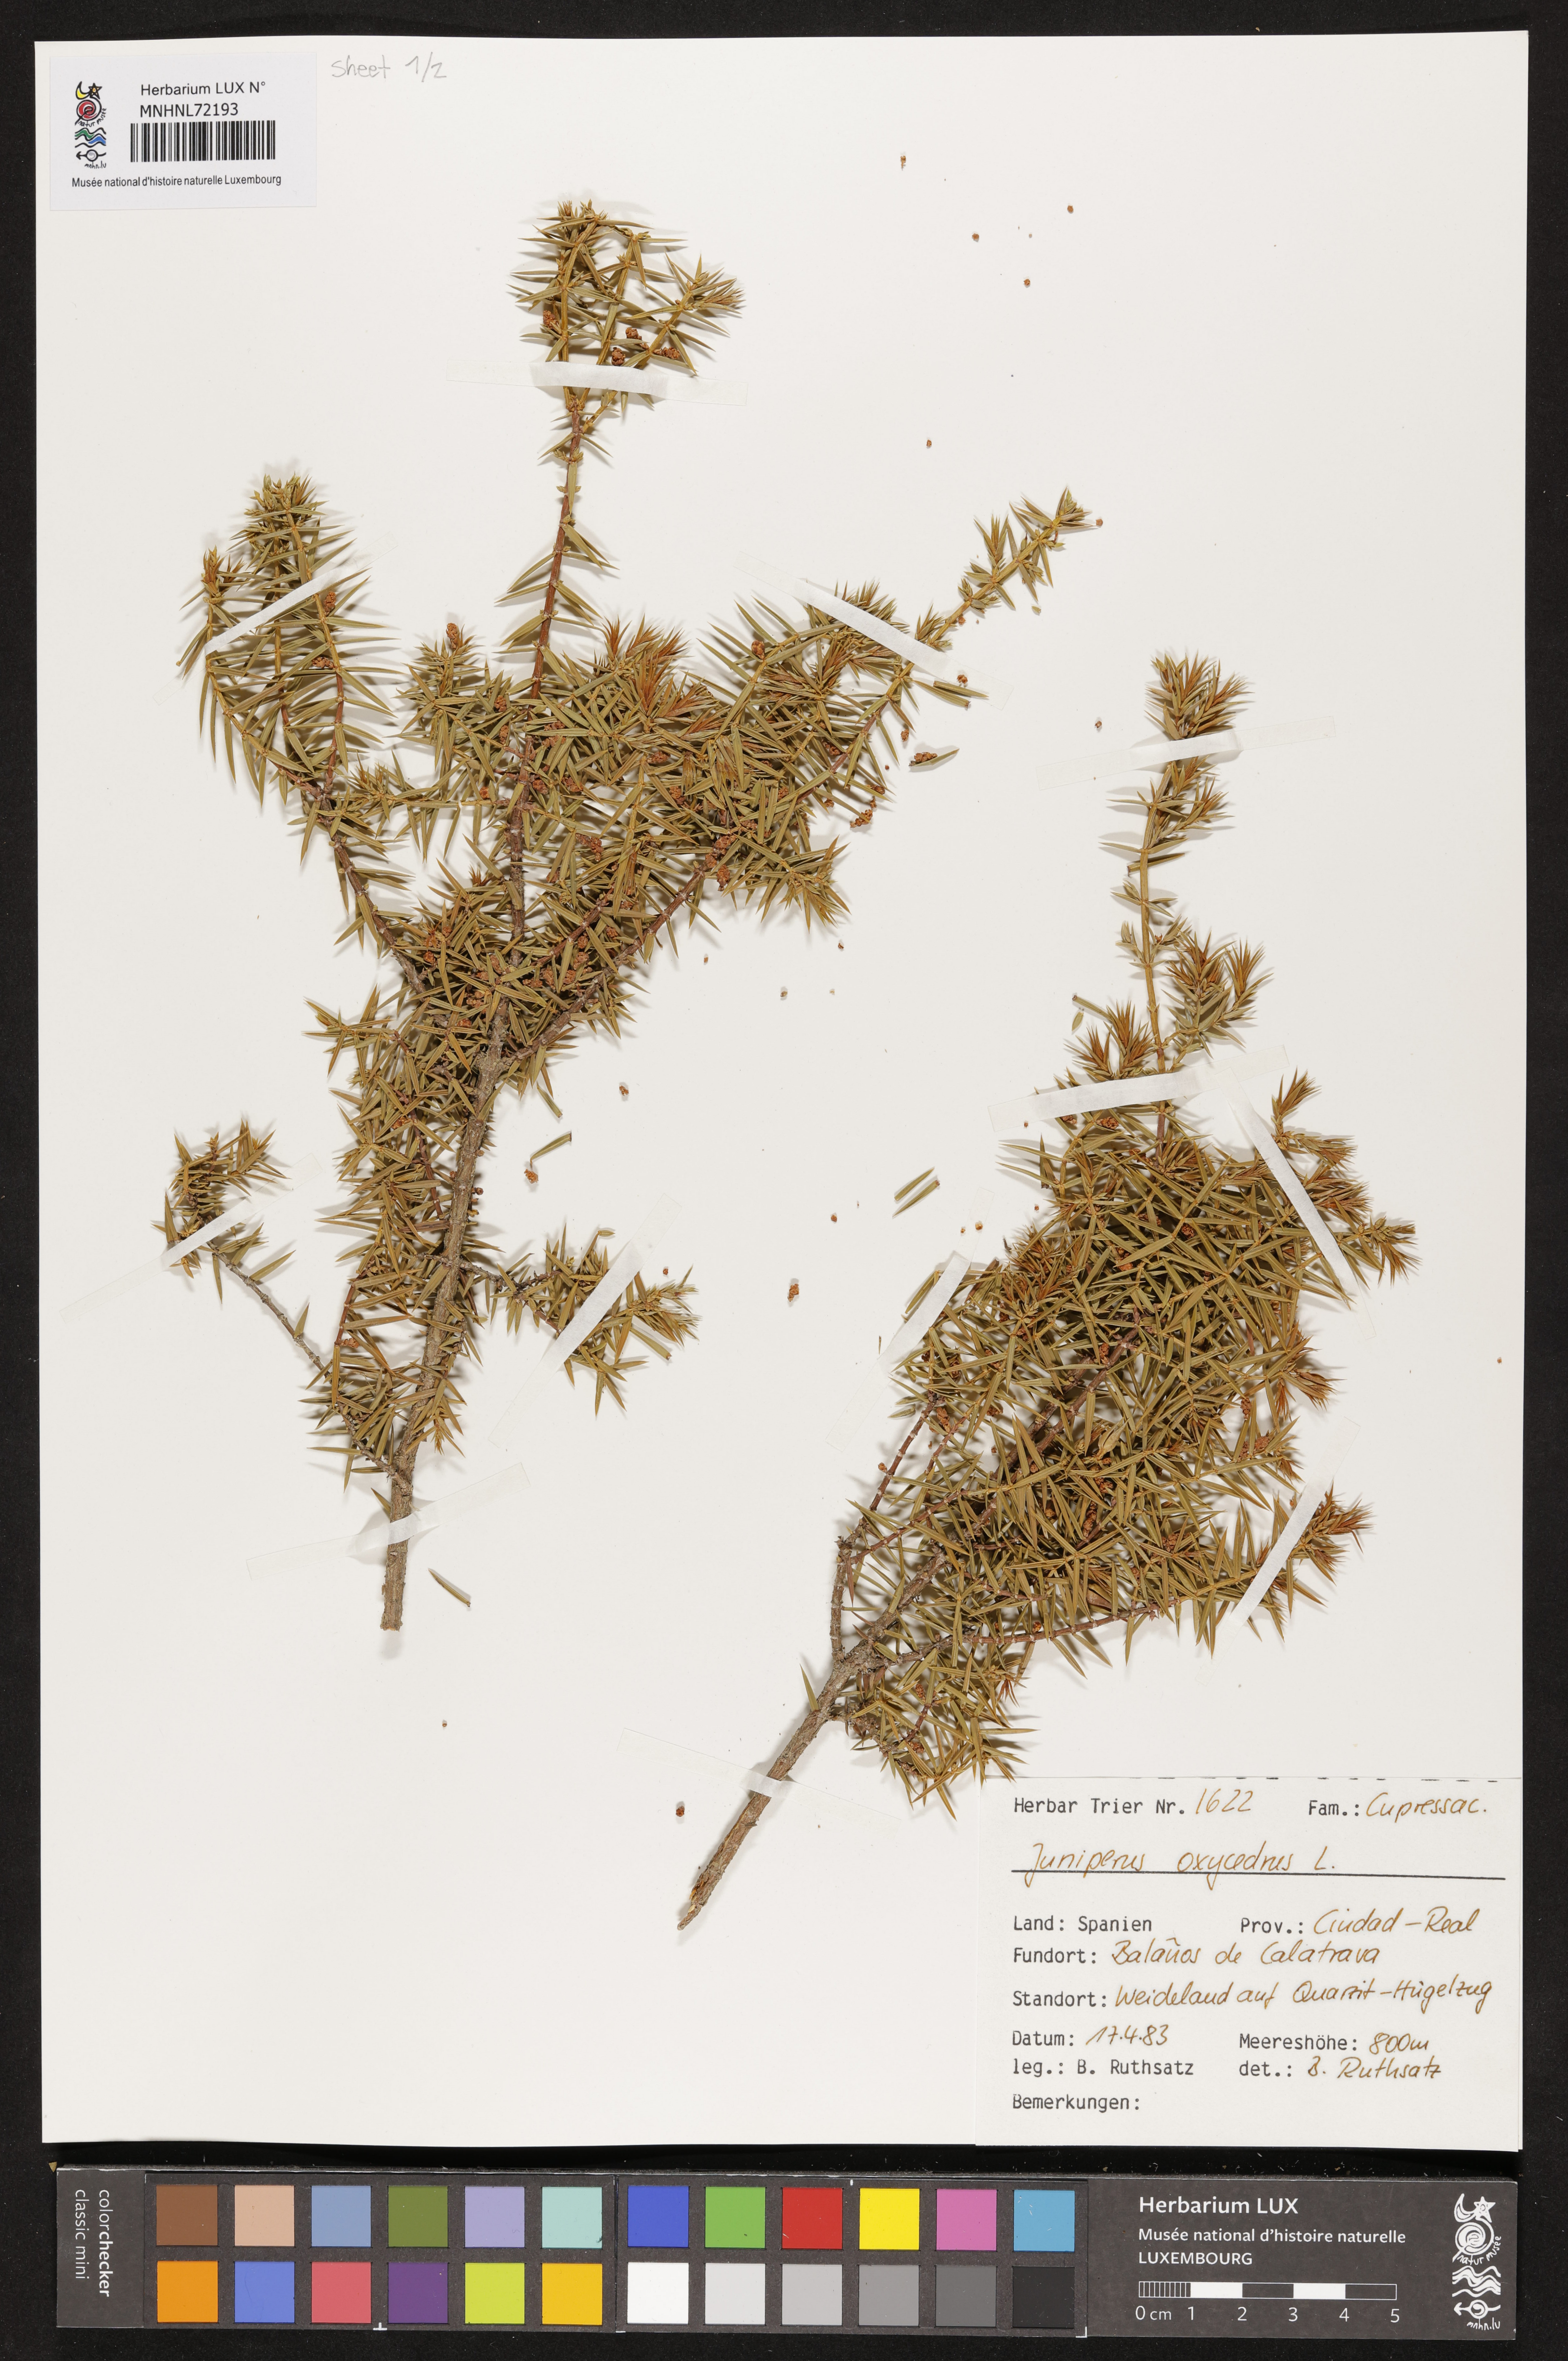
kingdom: Plantae
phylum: Tracheophyta
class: Pinopsida
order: Pinales
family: Cupressaceae
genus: Juniperus
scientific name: Juniperus oxycedrus
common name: Prickly juniper
